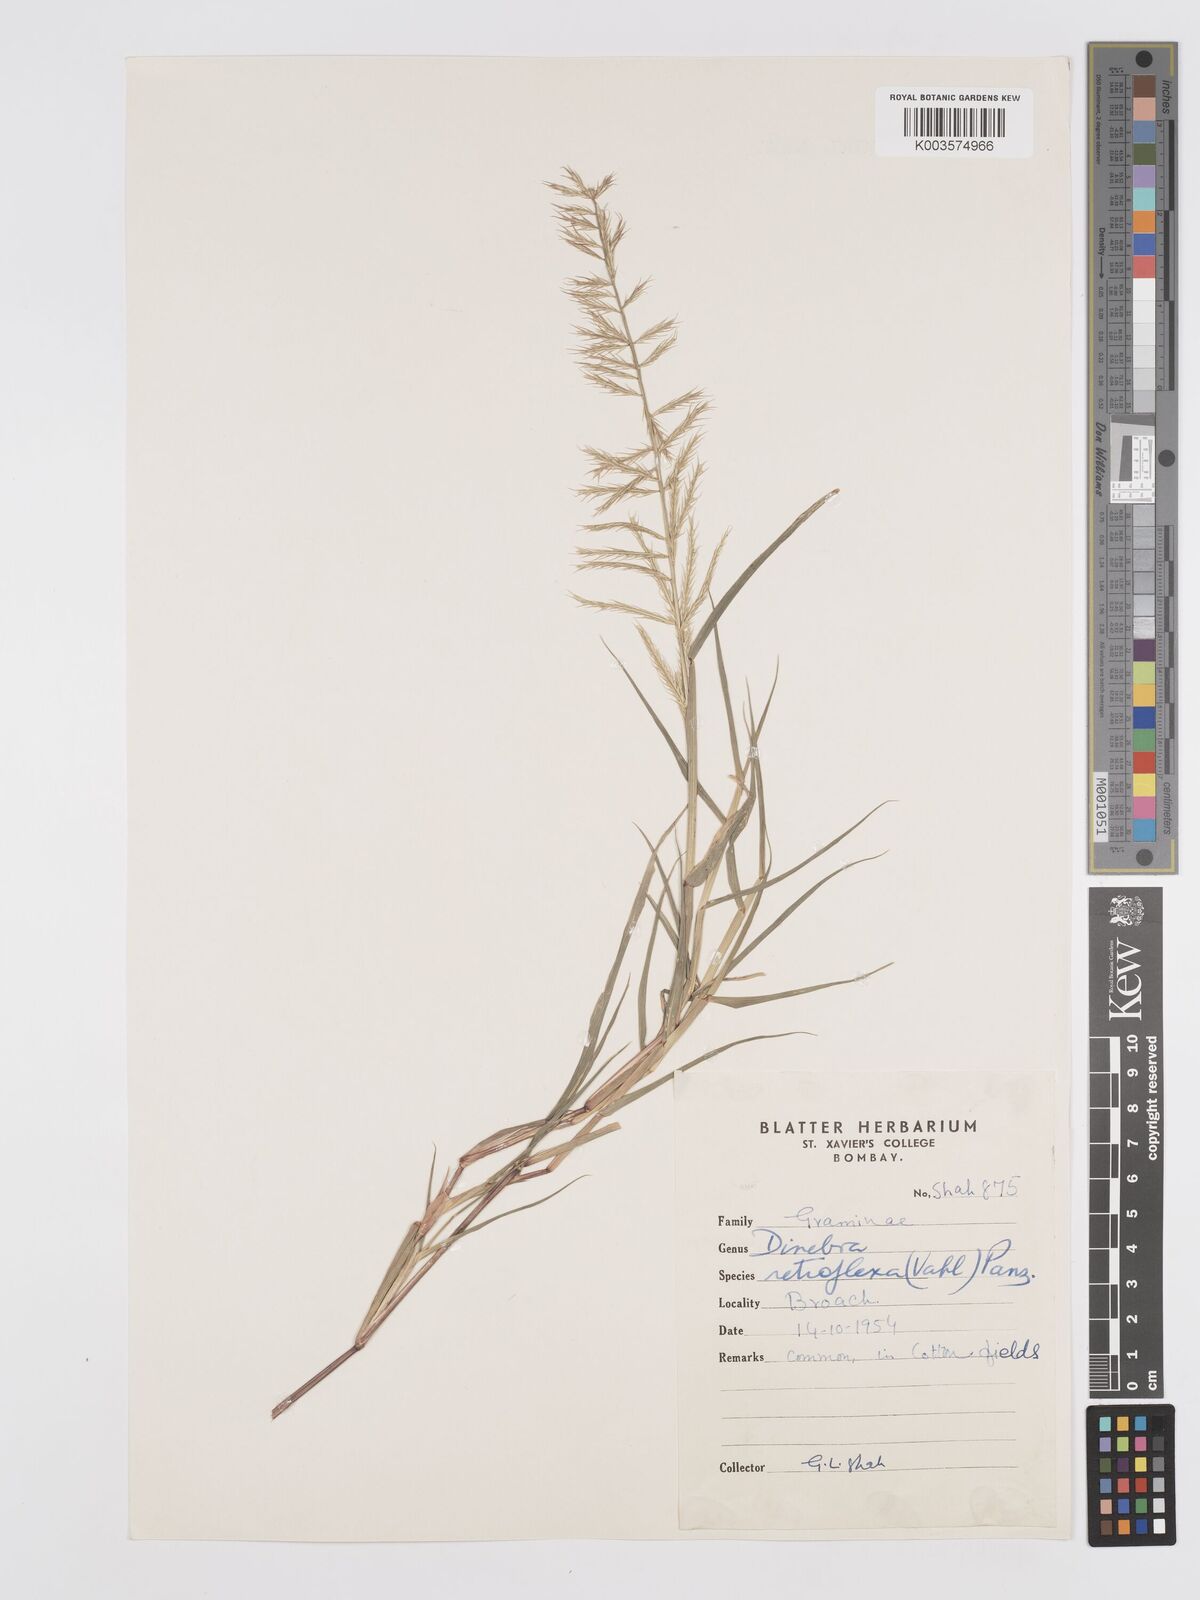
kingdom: Plantae
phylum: Tracheophyta
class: Liliopsida
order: Poales
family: Poaceae
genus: Dinebra
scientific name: Dinebra retroflexa
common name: Viper grass
